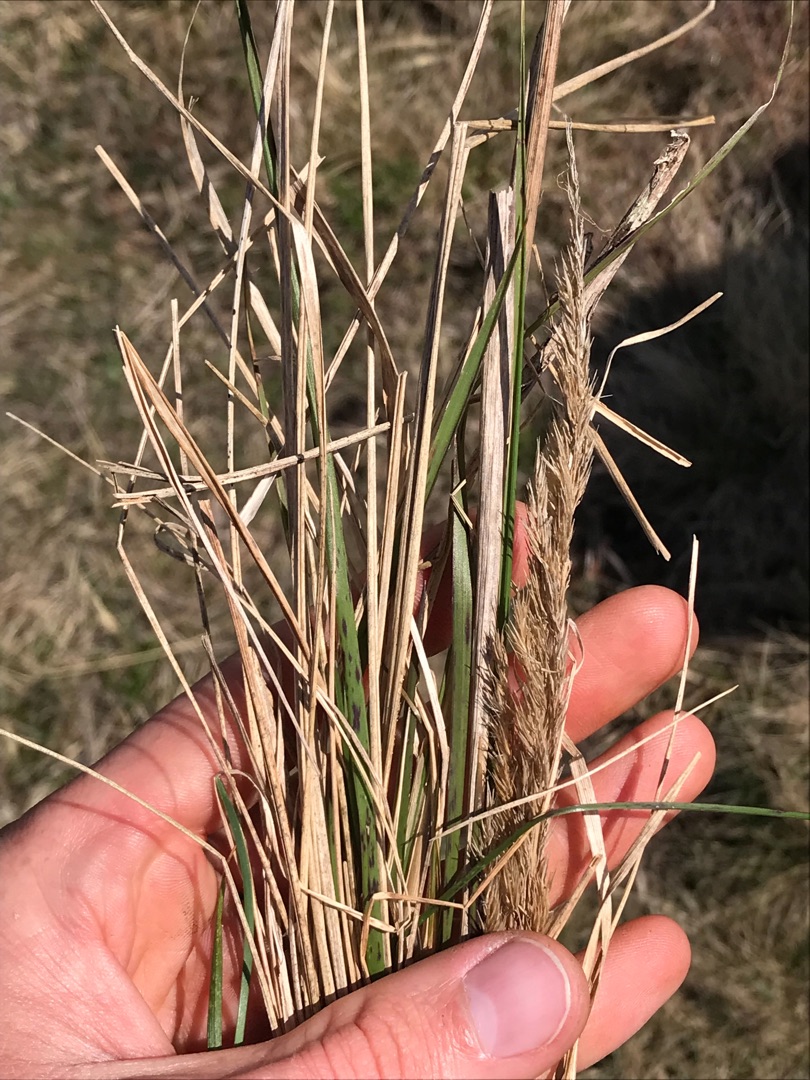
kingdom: Plantae
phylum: Tracheophyta
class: Liliopsida
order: Poales
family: Poaceae
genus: Calamagrostis
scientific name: Calamagrostis epigejos
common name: Bjerg-rørhvene
